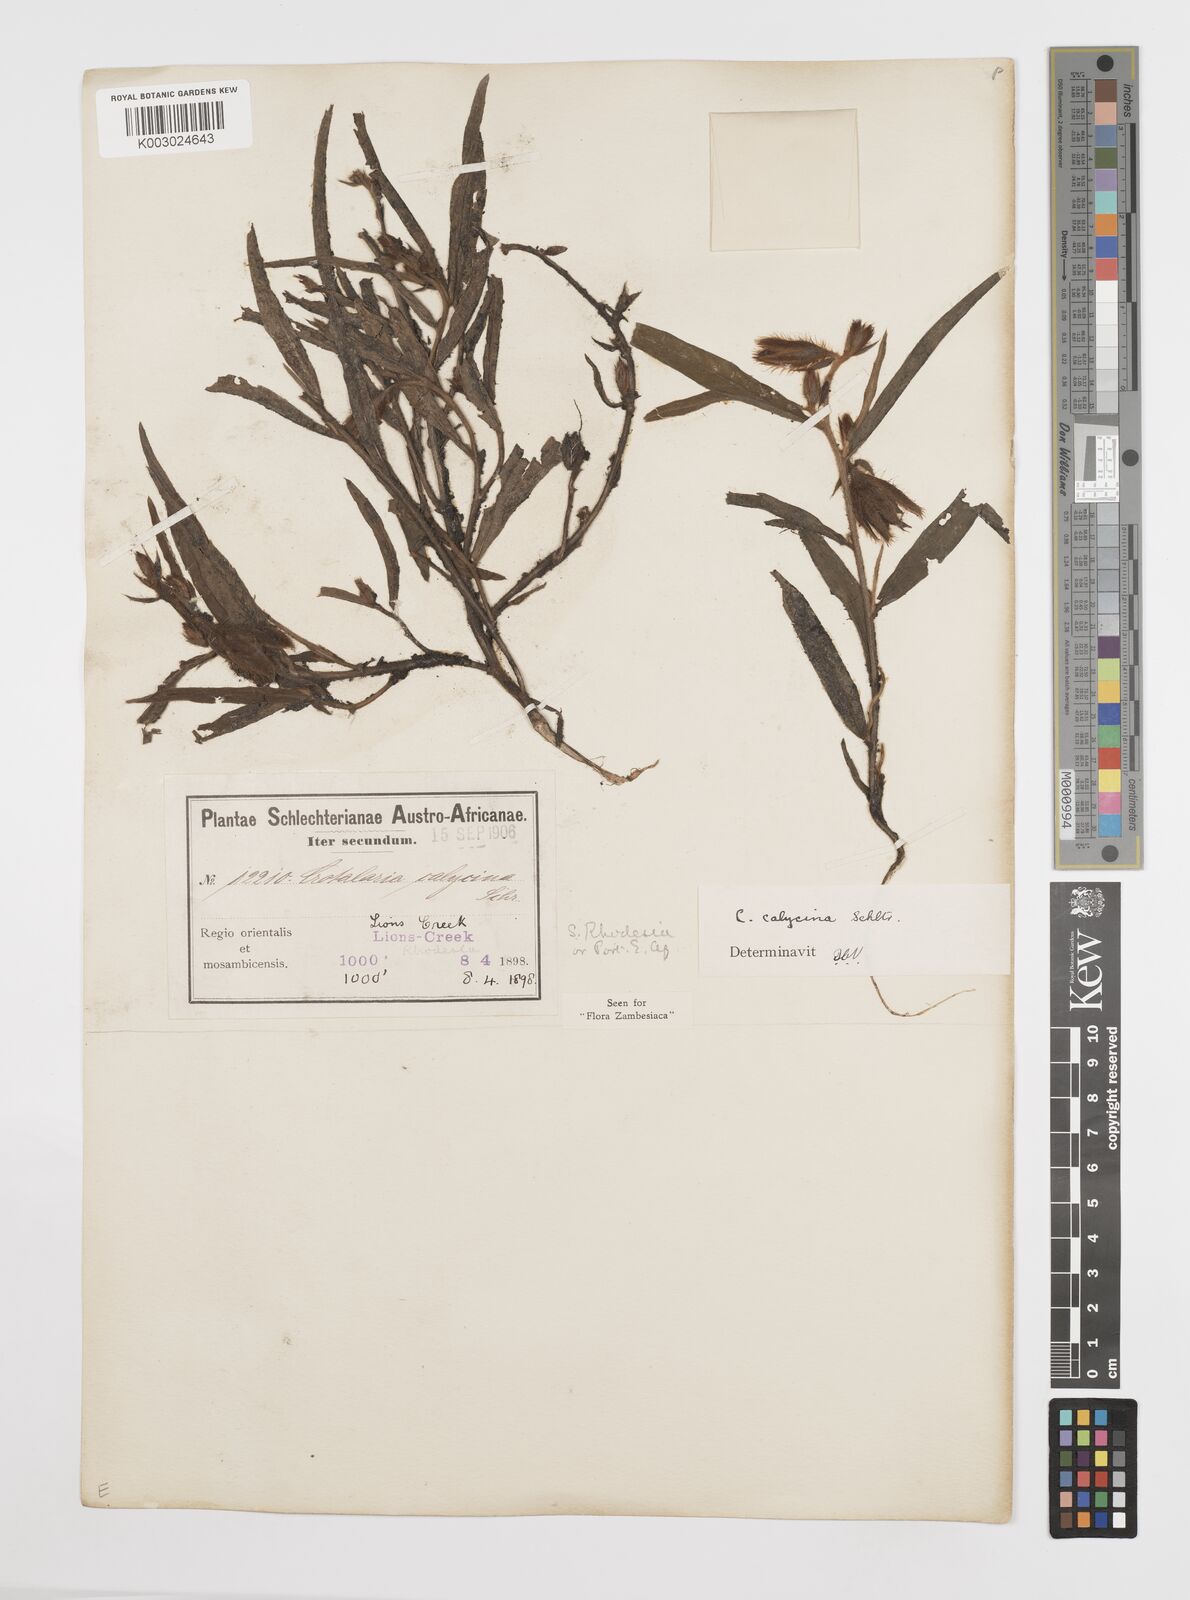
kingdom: Plantae
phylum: Tracheophyta
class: Magnoliopsida
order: Fabales
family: Fabaceae
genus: Crotalaria
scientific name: Crotalaria calycina
